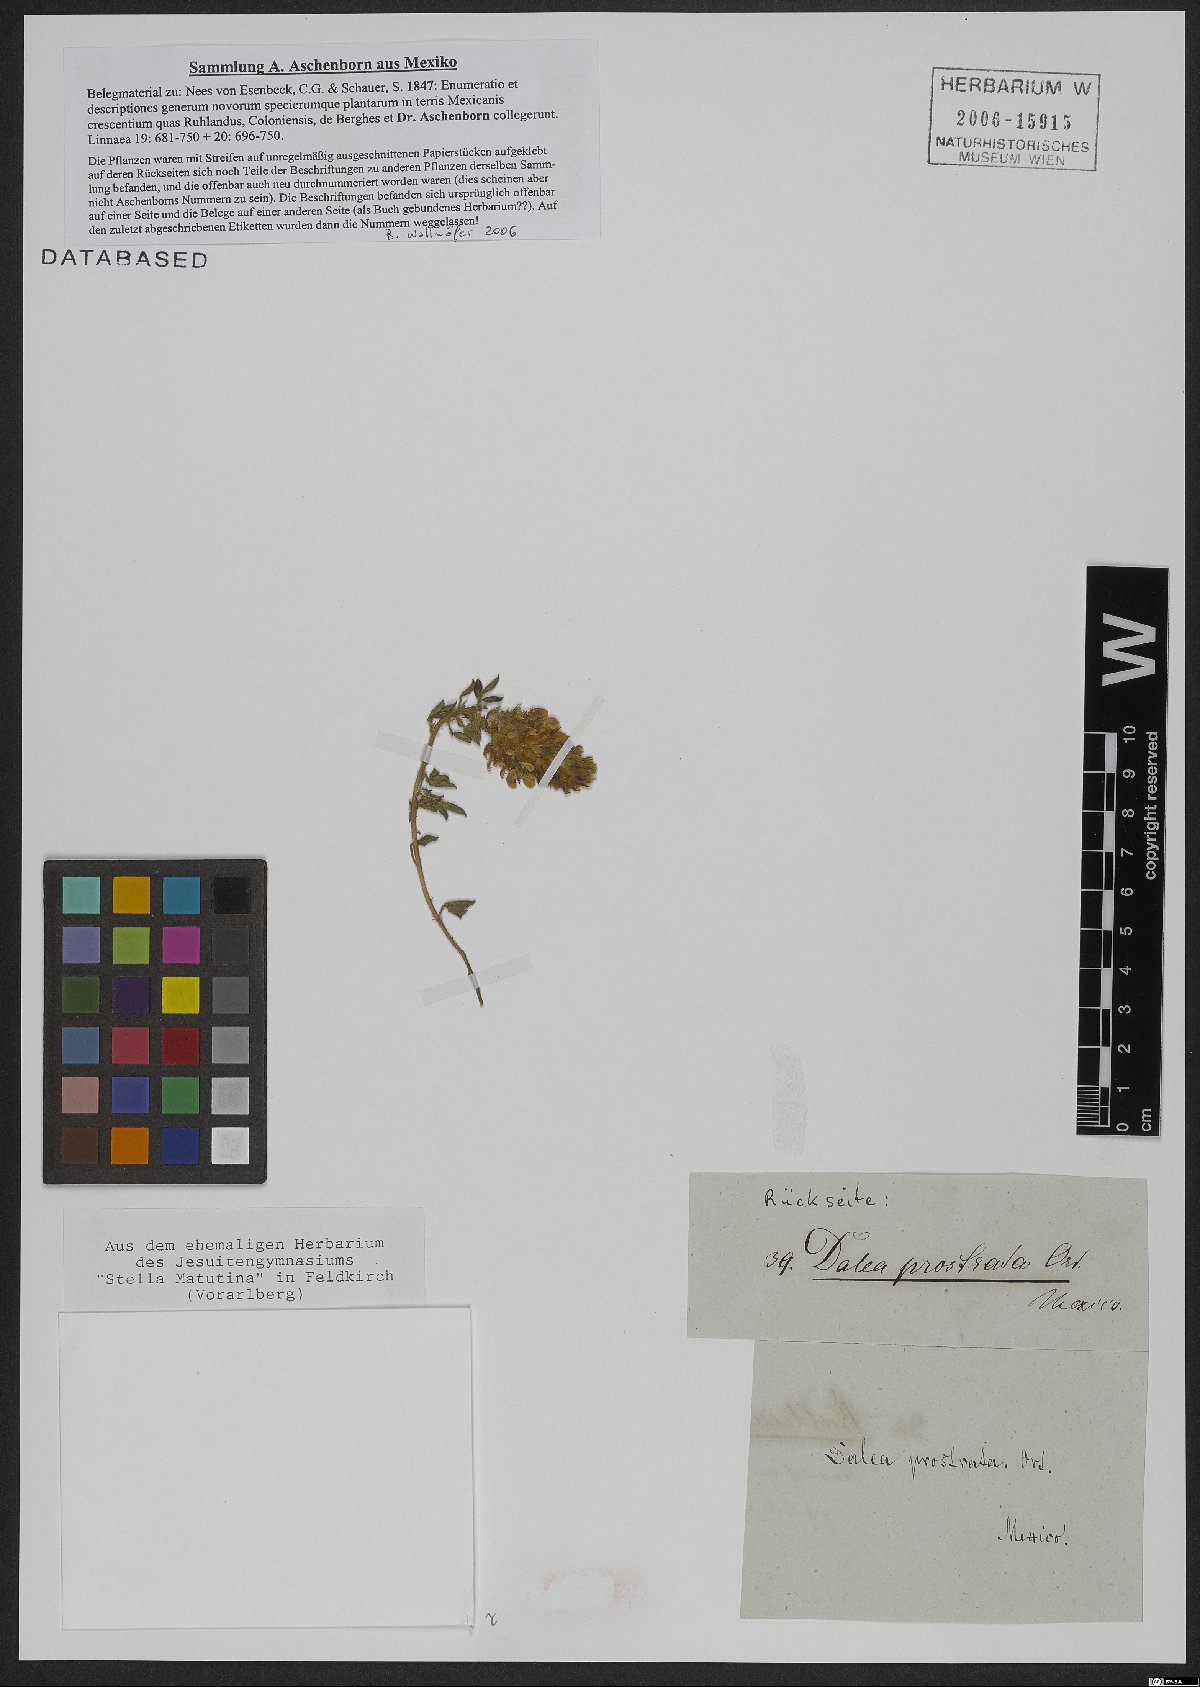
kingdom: Plantae
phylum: Tracheophyta
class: Magnoliopsida
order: Fabales
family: Fabaceae
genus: Dalea
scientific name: Dalea prostrata
